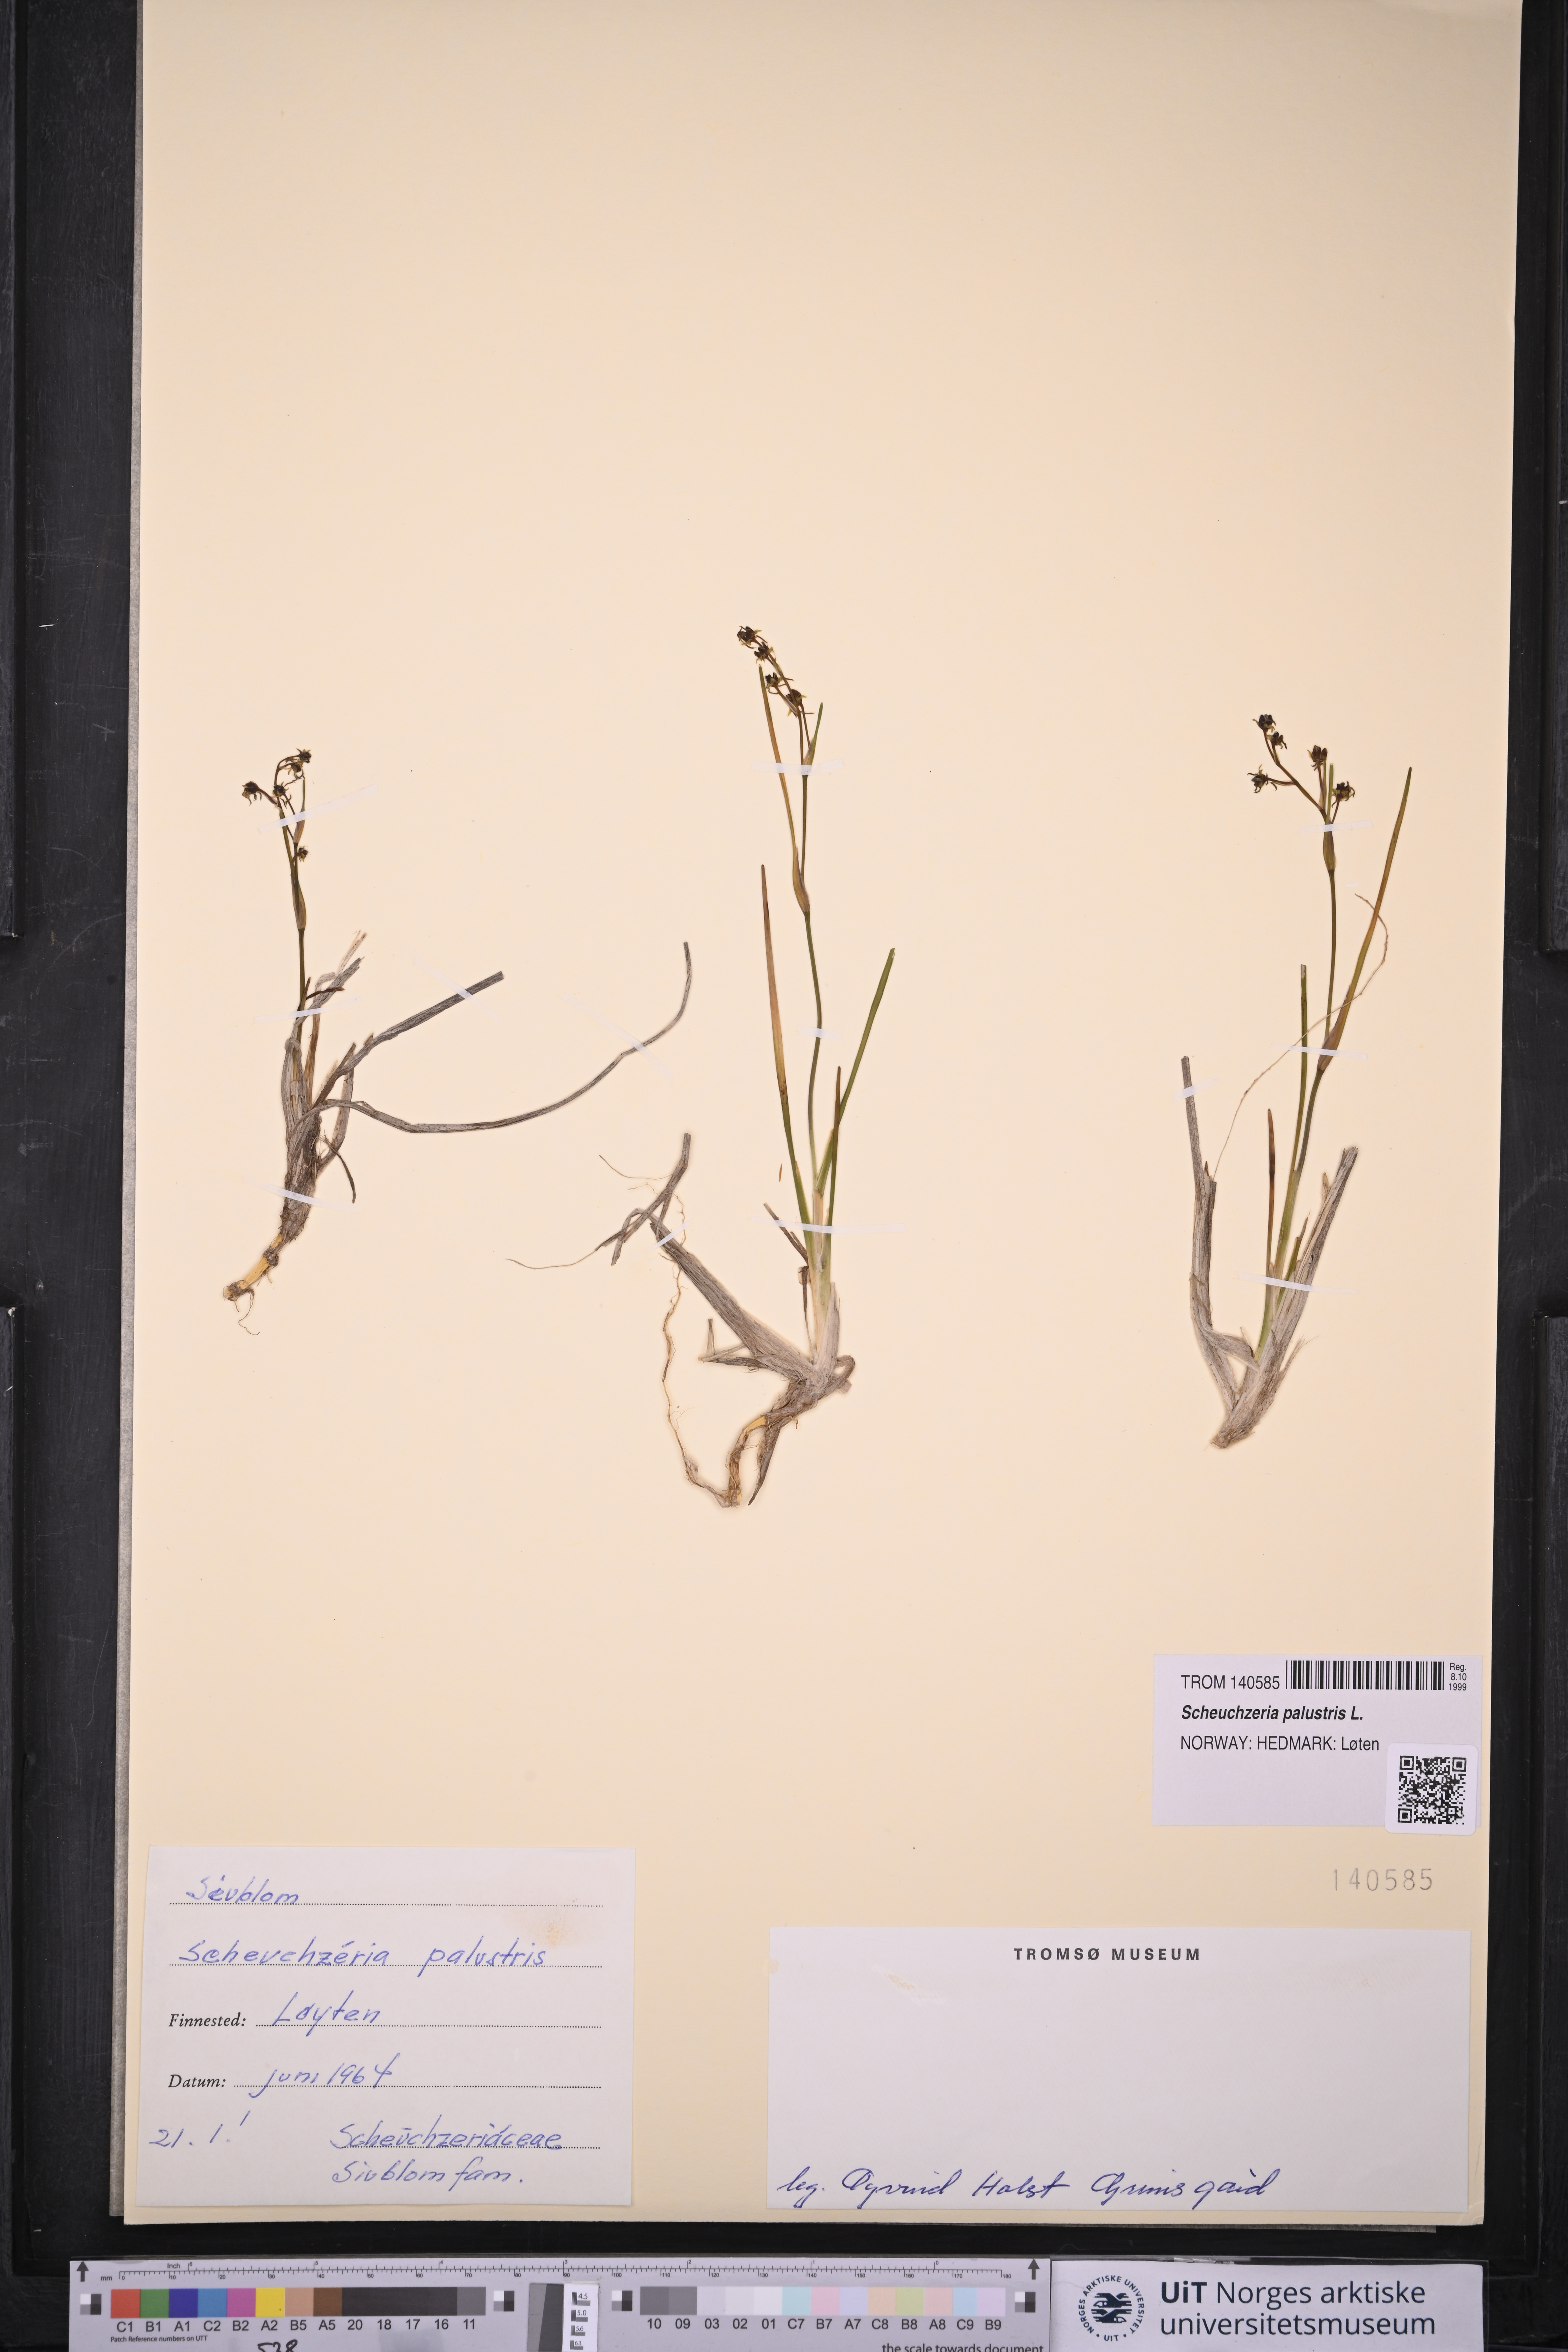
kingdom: Plantae
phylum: Tracheophyta
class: Liliopsida
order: Alismatales
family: Scheuchzeriaceae
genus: Scheuchzeria
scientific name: Scheuchzeria palustris
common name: Rannoch-rush
